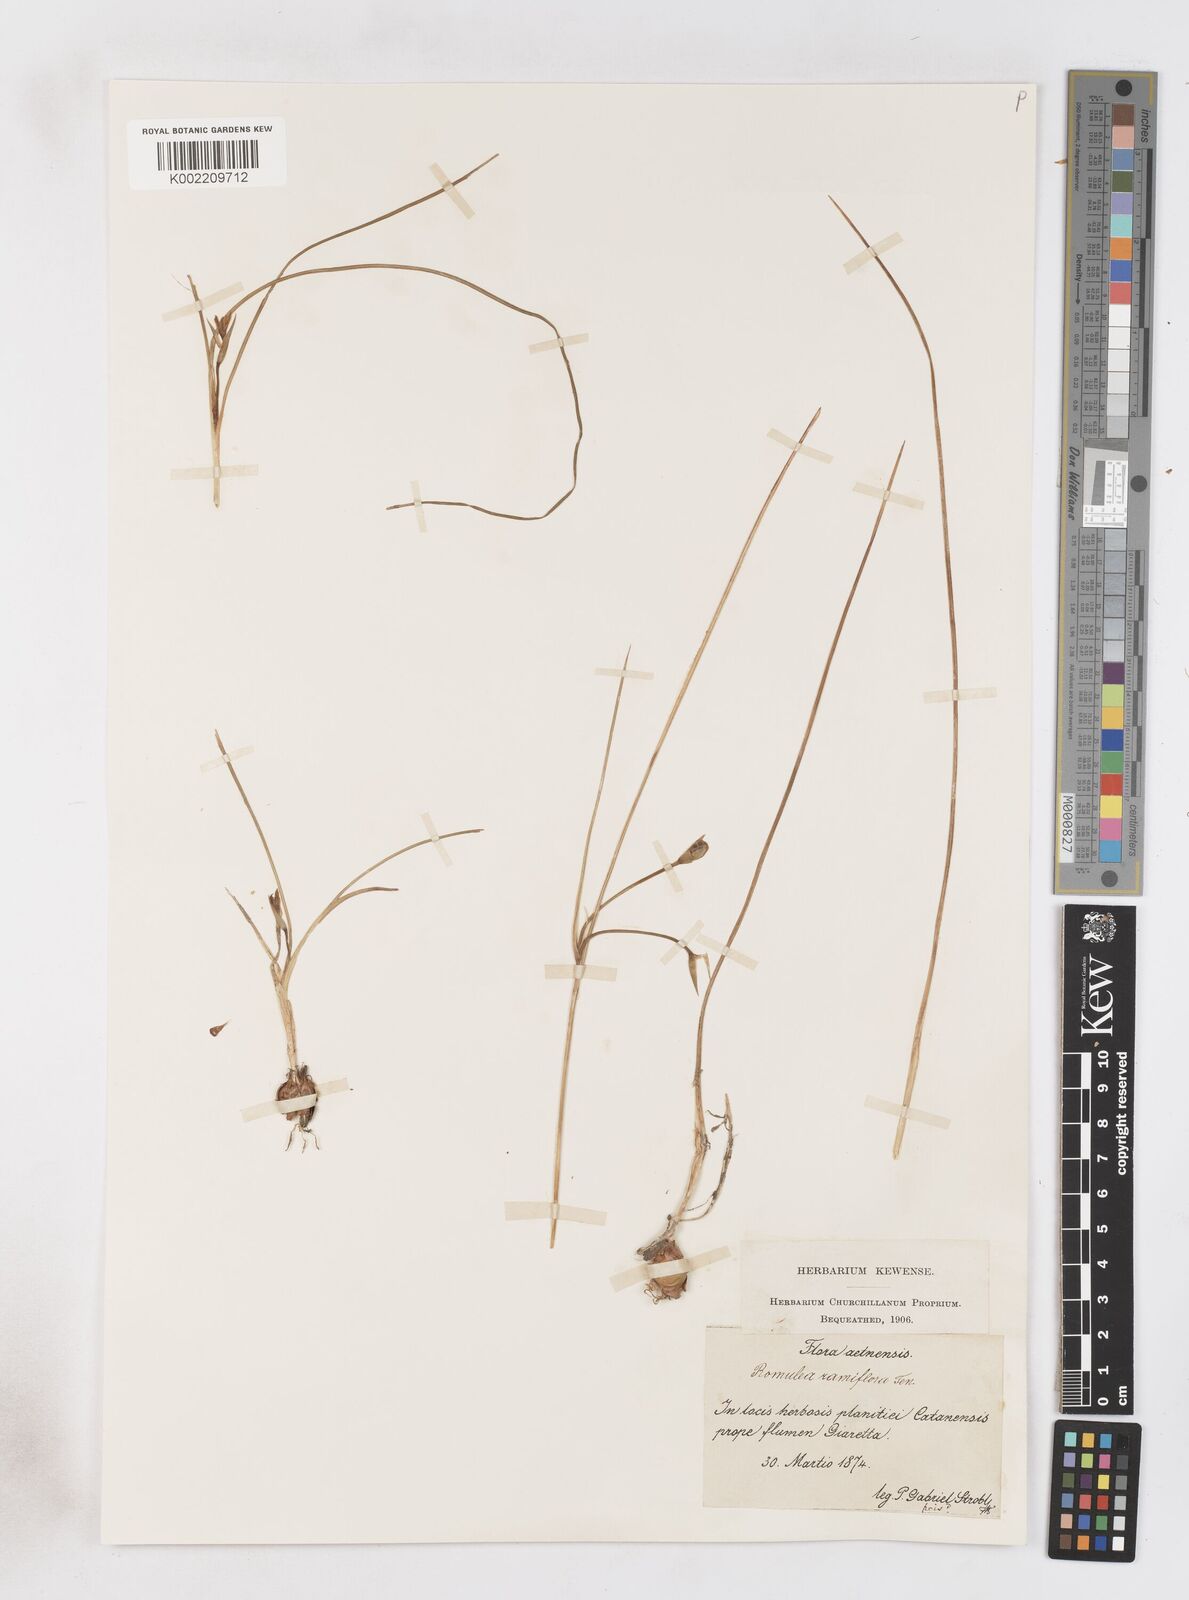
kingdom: Plantae
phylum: Tracheophyta
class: Liliopsida
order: Asparagales
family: Iridaceae
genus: Romulea
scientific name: Romulea ramiflora
